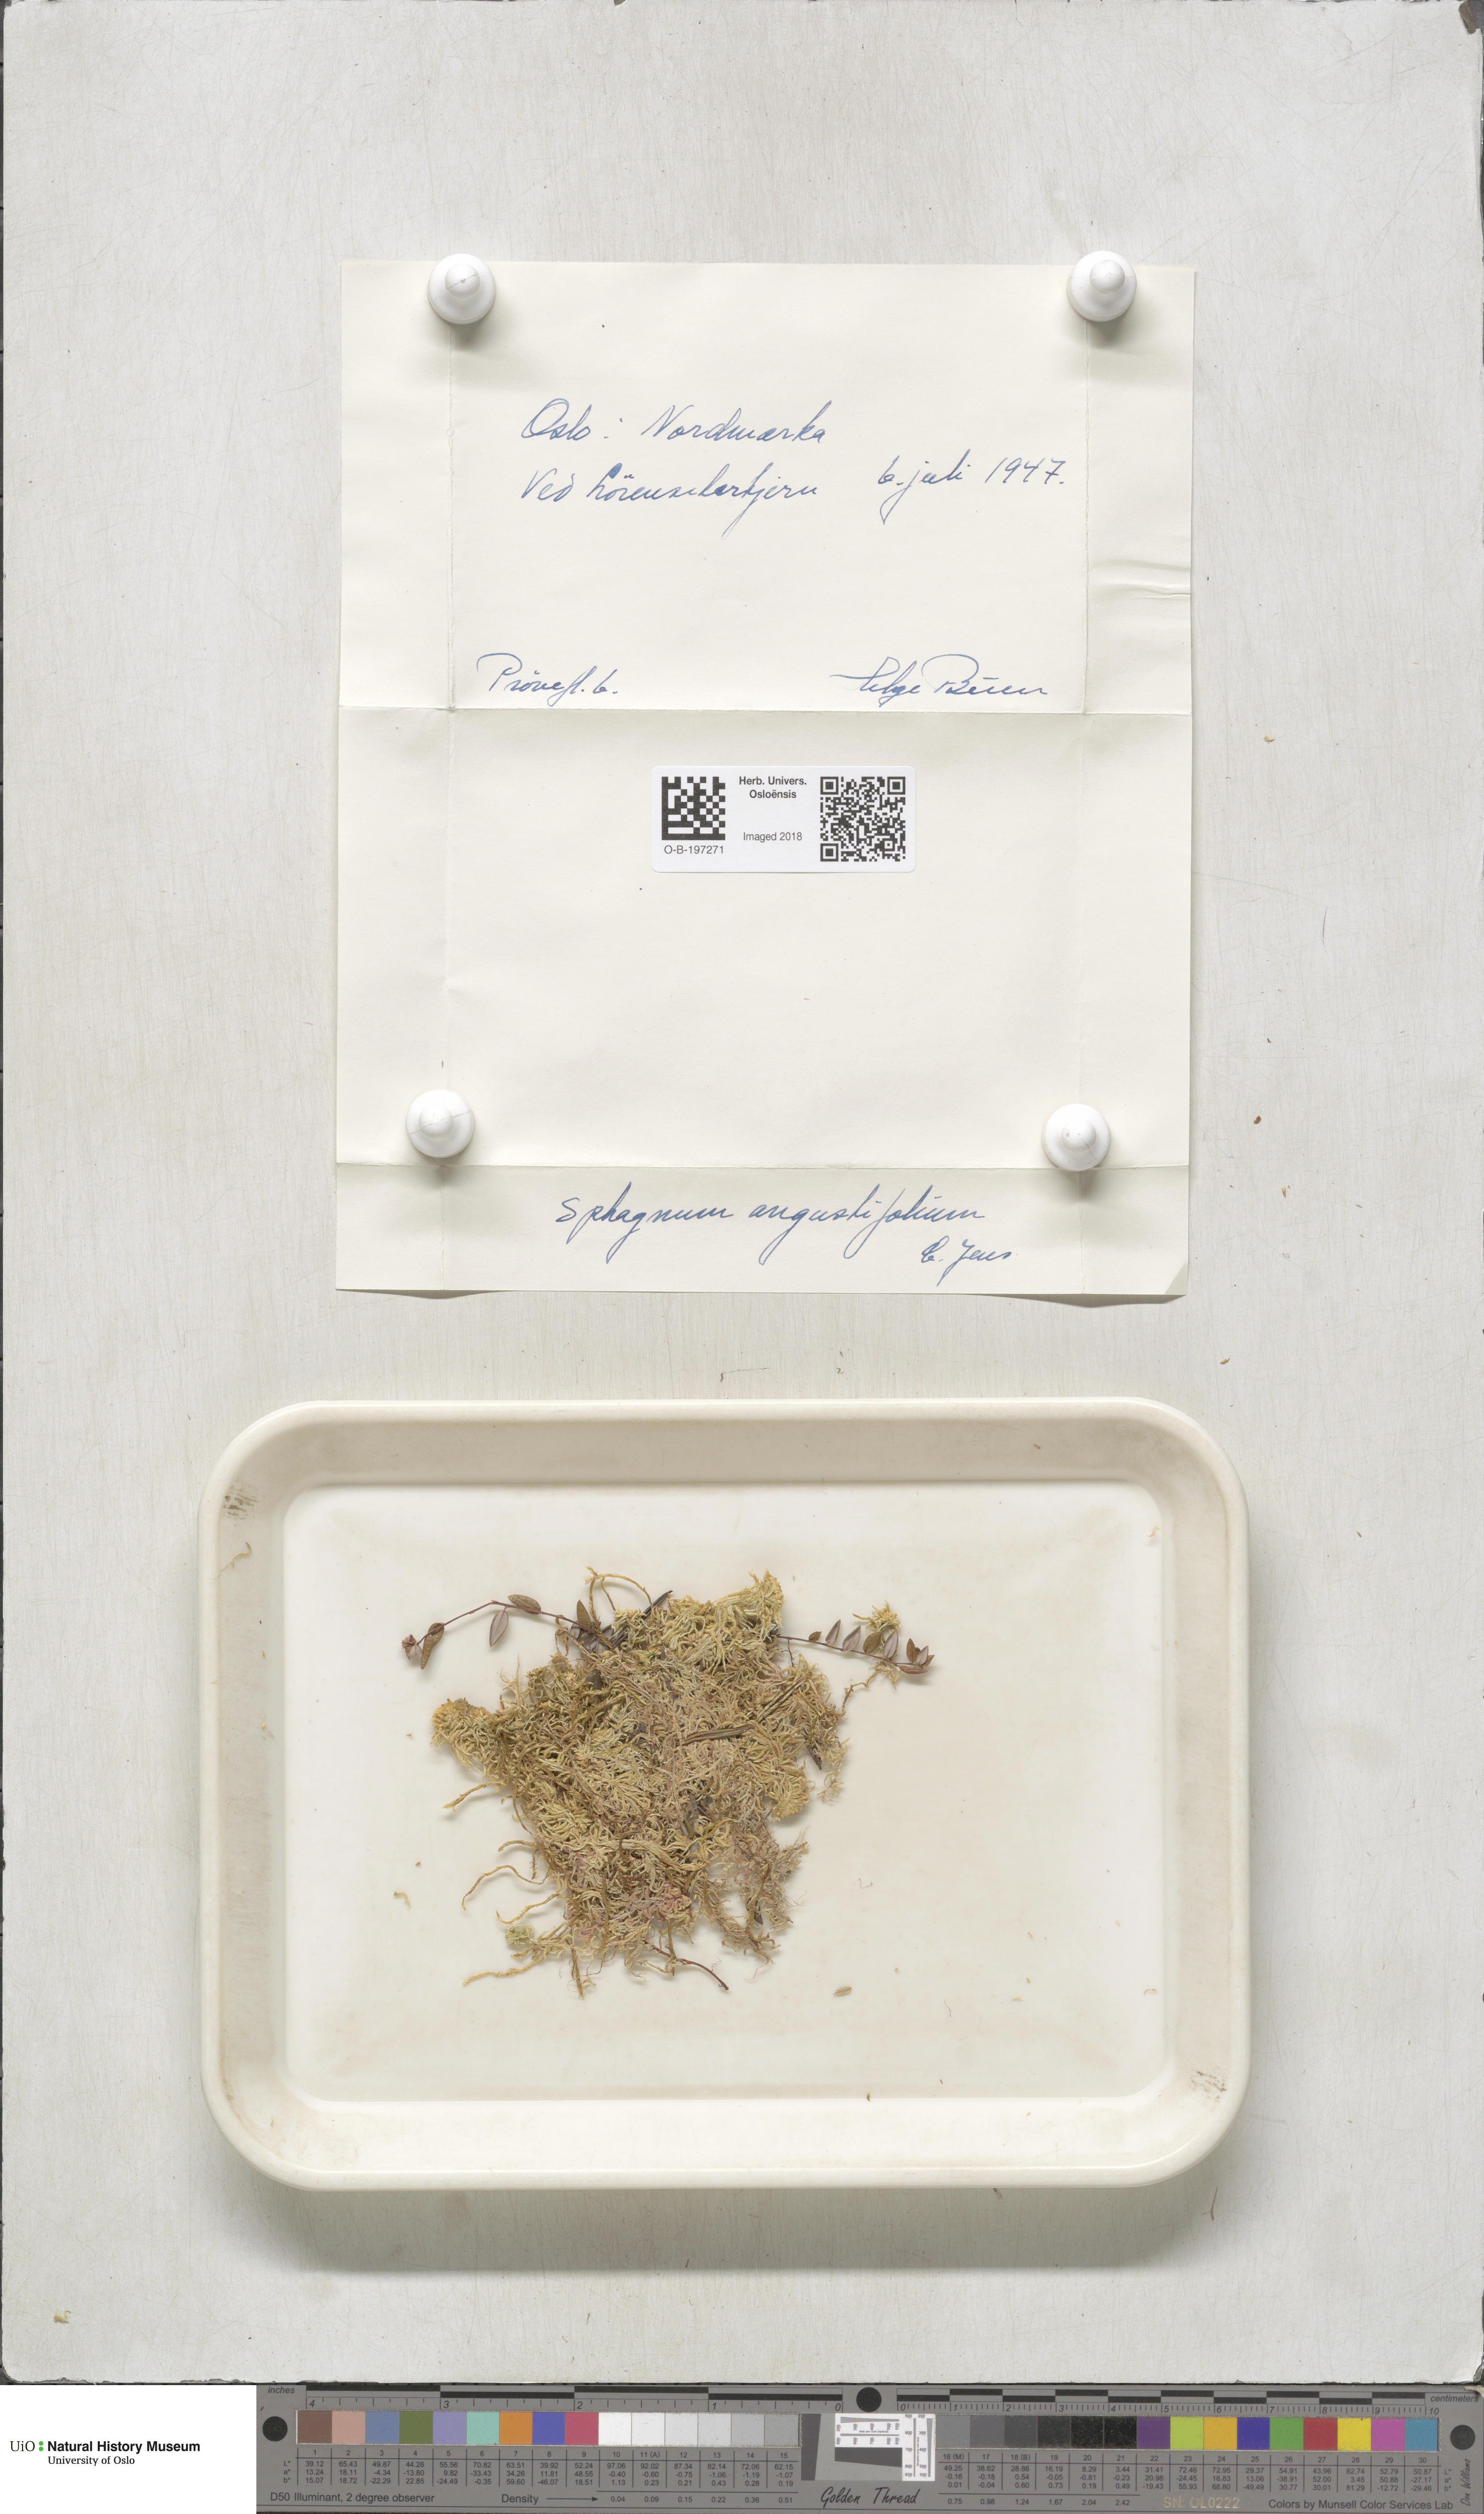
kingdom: Plantae
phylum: Bryophyta
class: Sphagnopsida
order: Sphagnales
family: Sphagnaceae
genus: Sphagnum
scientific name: Sphagnum angustifolium
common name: Narrow-leaved peat moss
